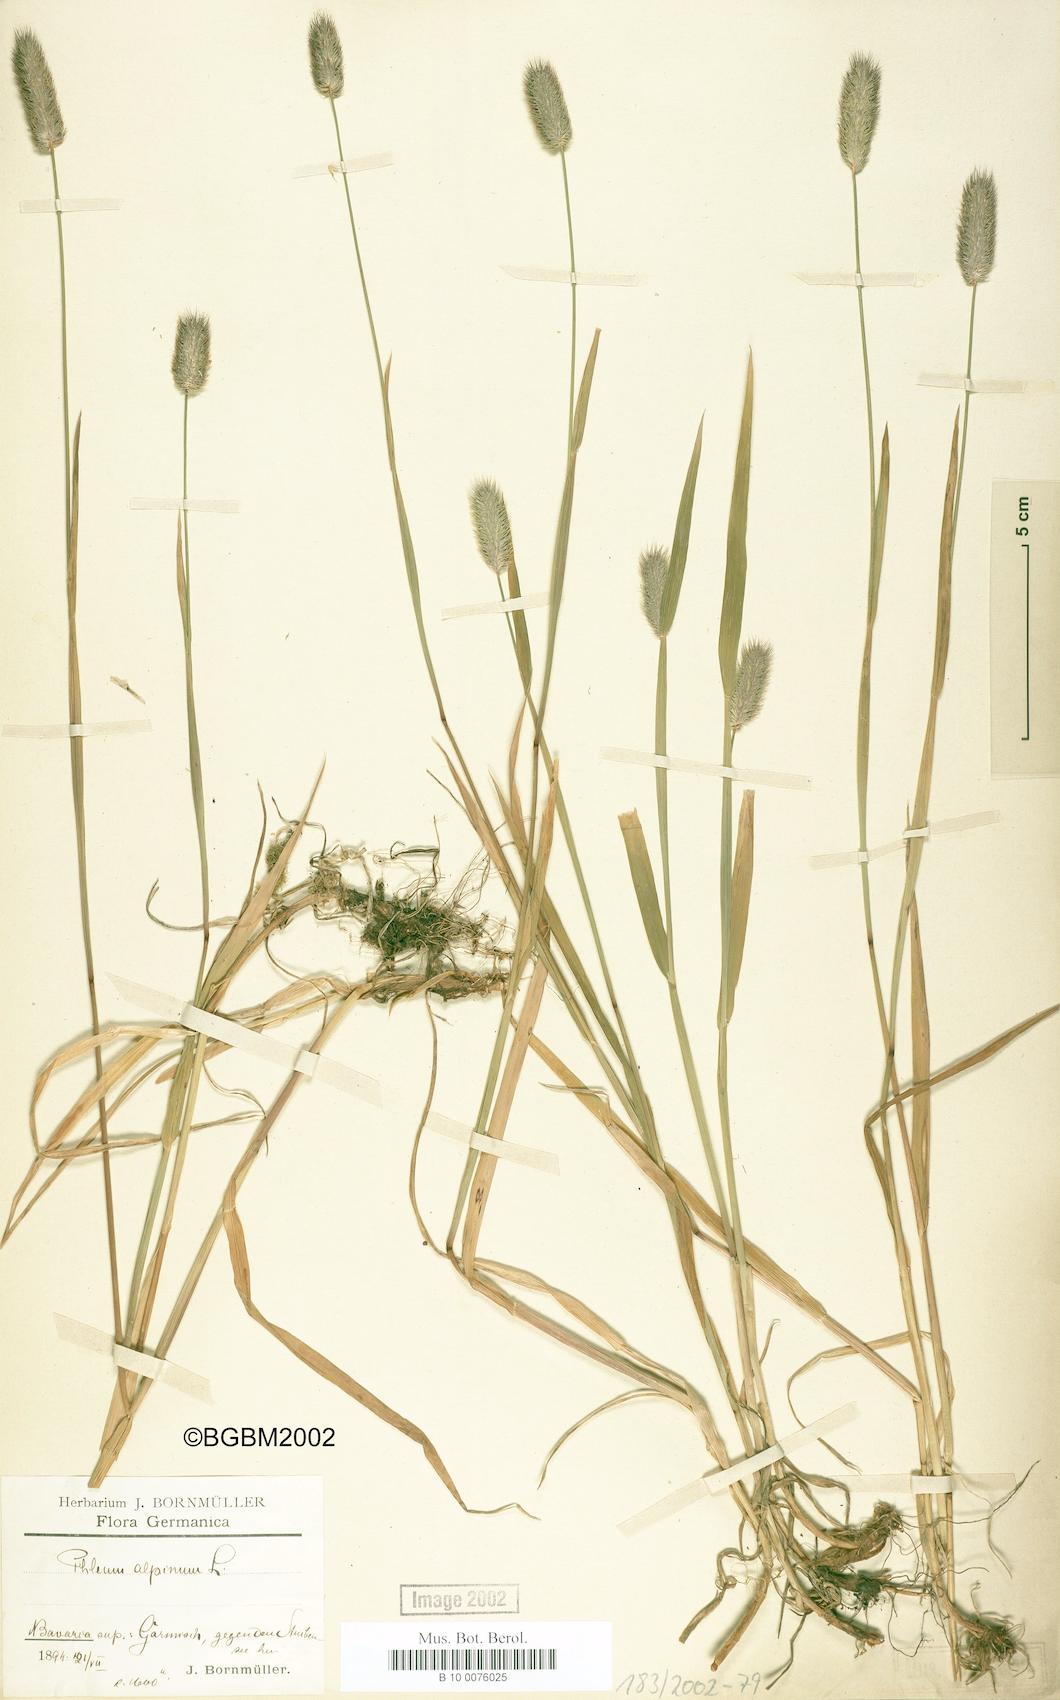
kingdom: Plantae
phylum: Tracheophyta
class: Liliopsida
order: Poales
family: Poaceae
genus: Phleum
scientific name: Phleum alpinum
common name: Alpine cat's-tail
